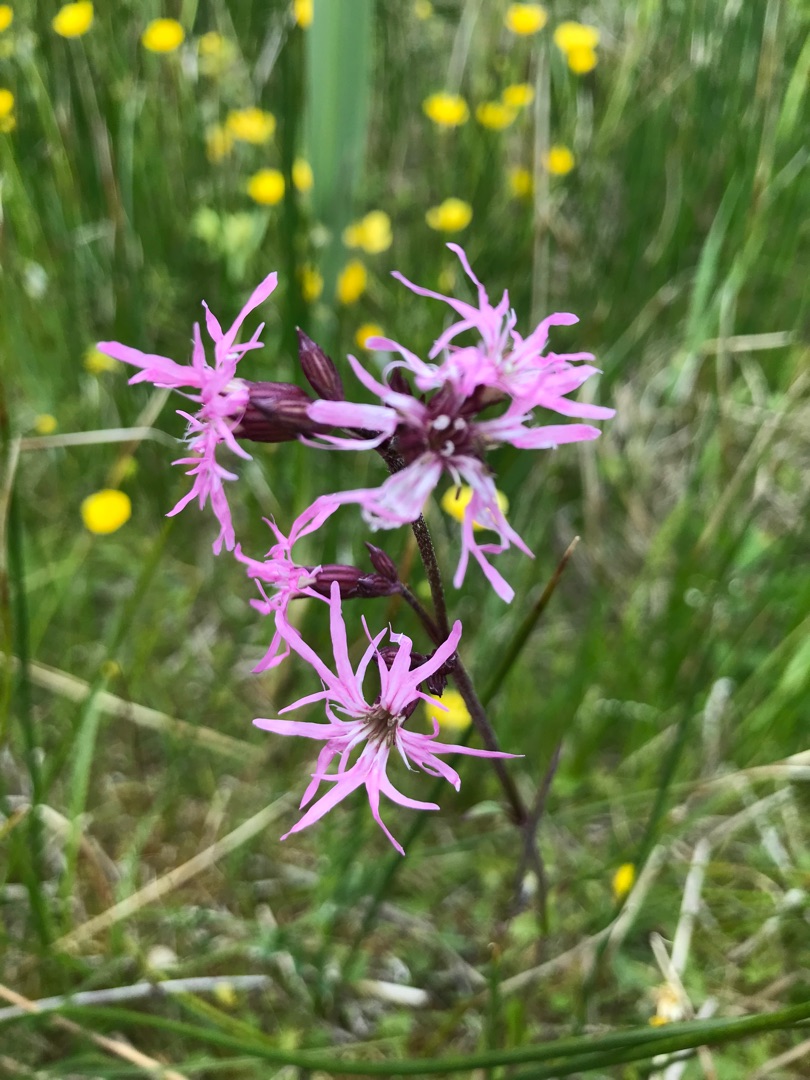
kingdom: Plantae
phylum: Tracheophyta
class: Magnoliopsida
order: Caryophyllales
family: Caryophyllaceae
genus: Silene
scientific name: Silene flos-cuculi
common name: Trævlekrone
